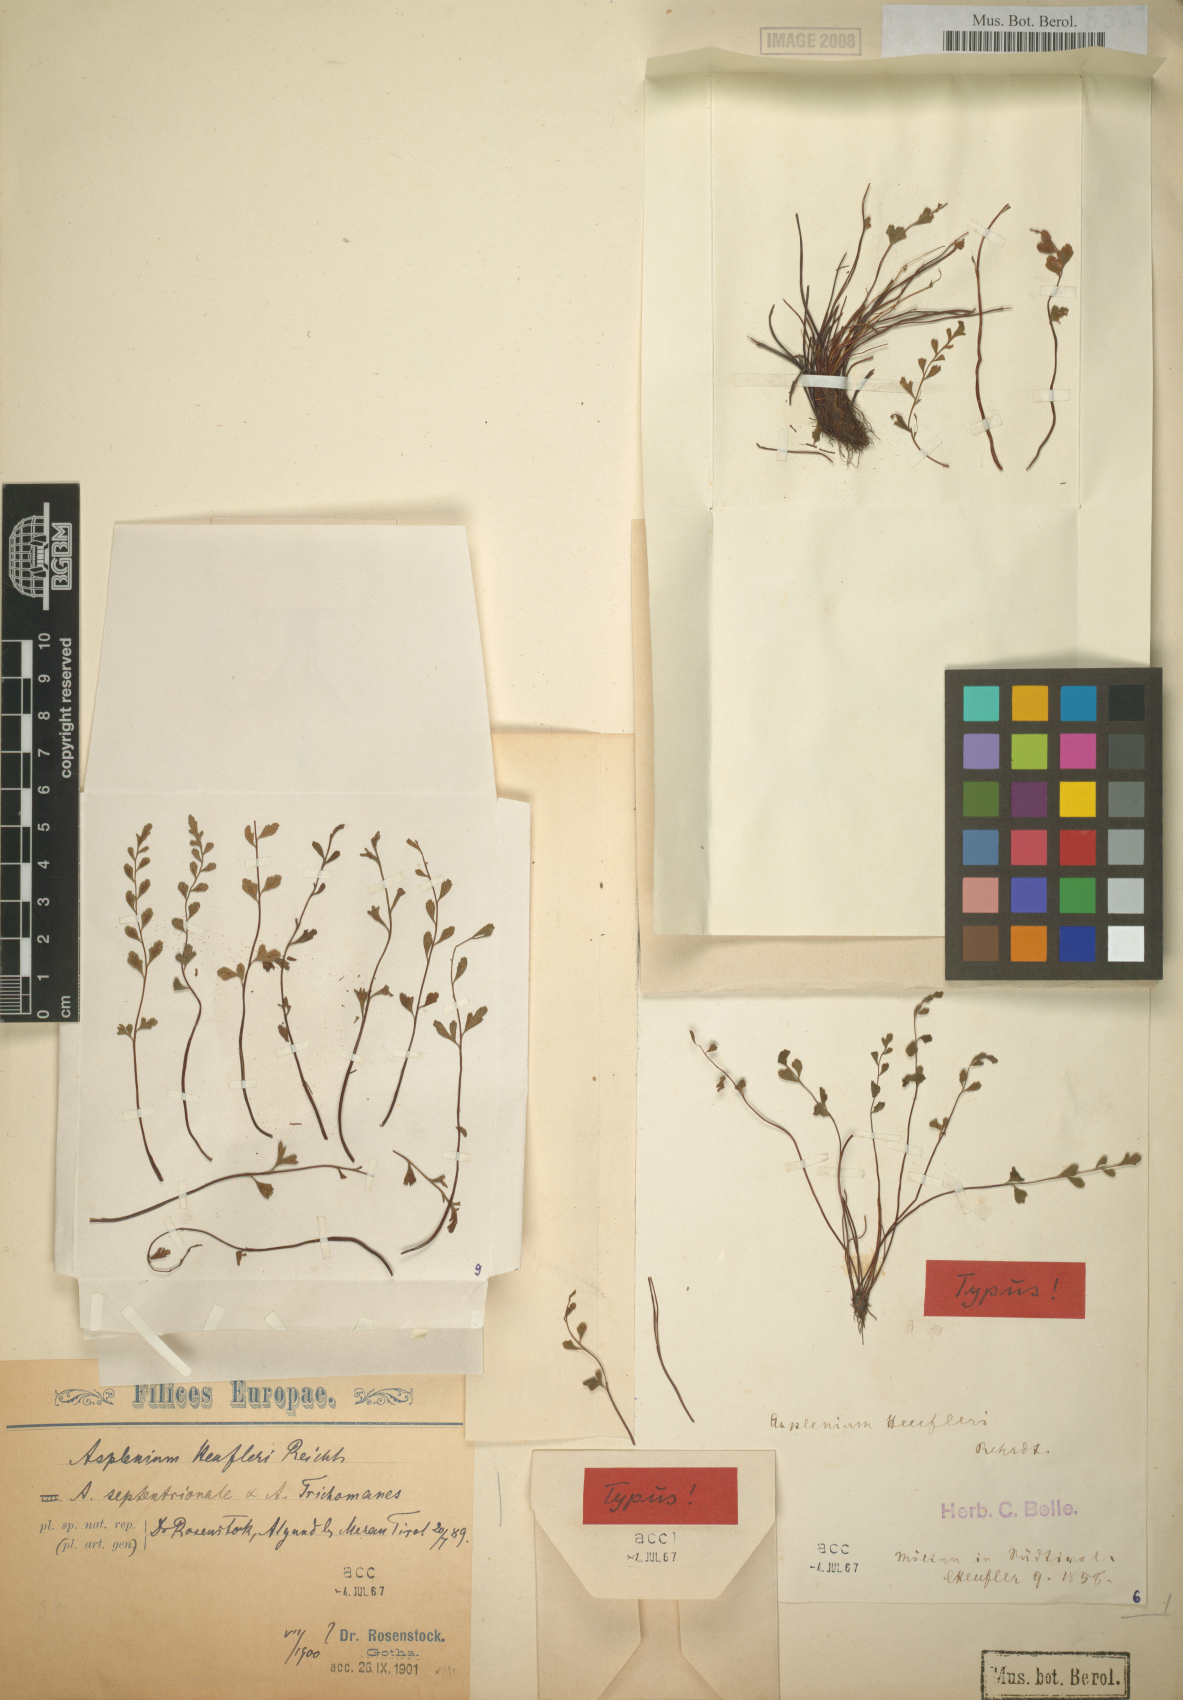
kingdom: Plantae
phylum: Tracheophyta
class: Polypodiopsida
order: Polypodiales
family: Aspleniaceae
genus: Asplenium
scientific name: Asplenium heufleri
